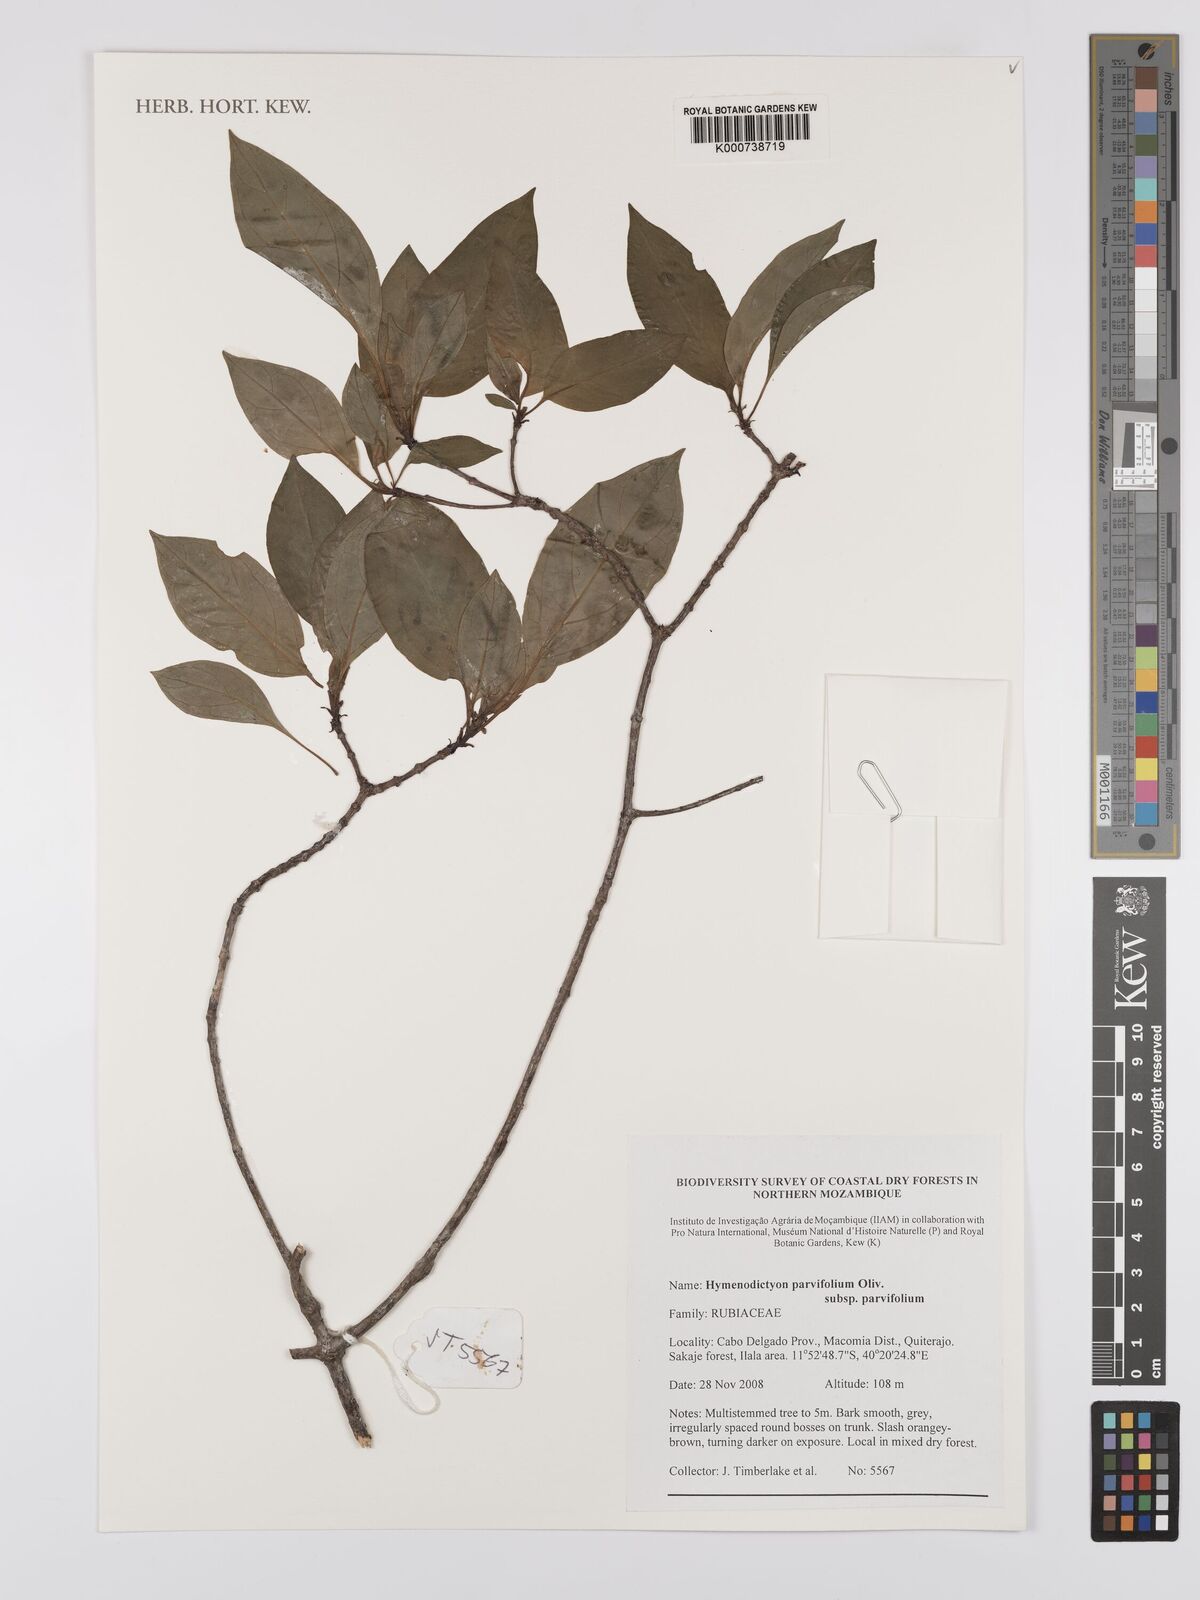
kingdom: Plantae
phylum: Tracheophyta
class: Magnoliopsida
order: Gentianales
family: Rubiaceae
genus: Hymenodictyon
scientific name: Hymenodictyon parvifolium
